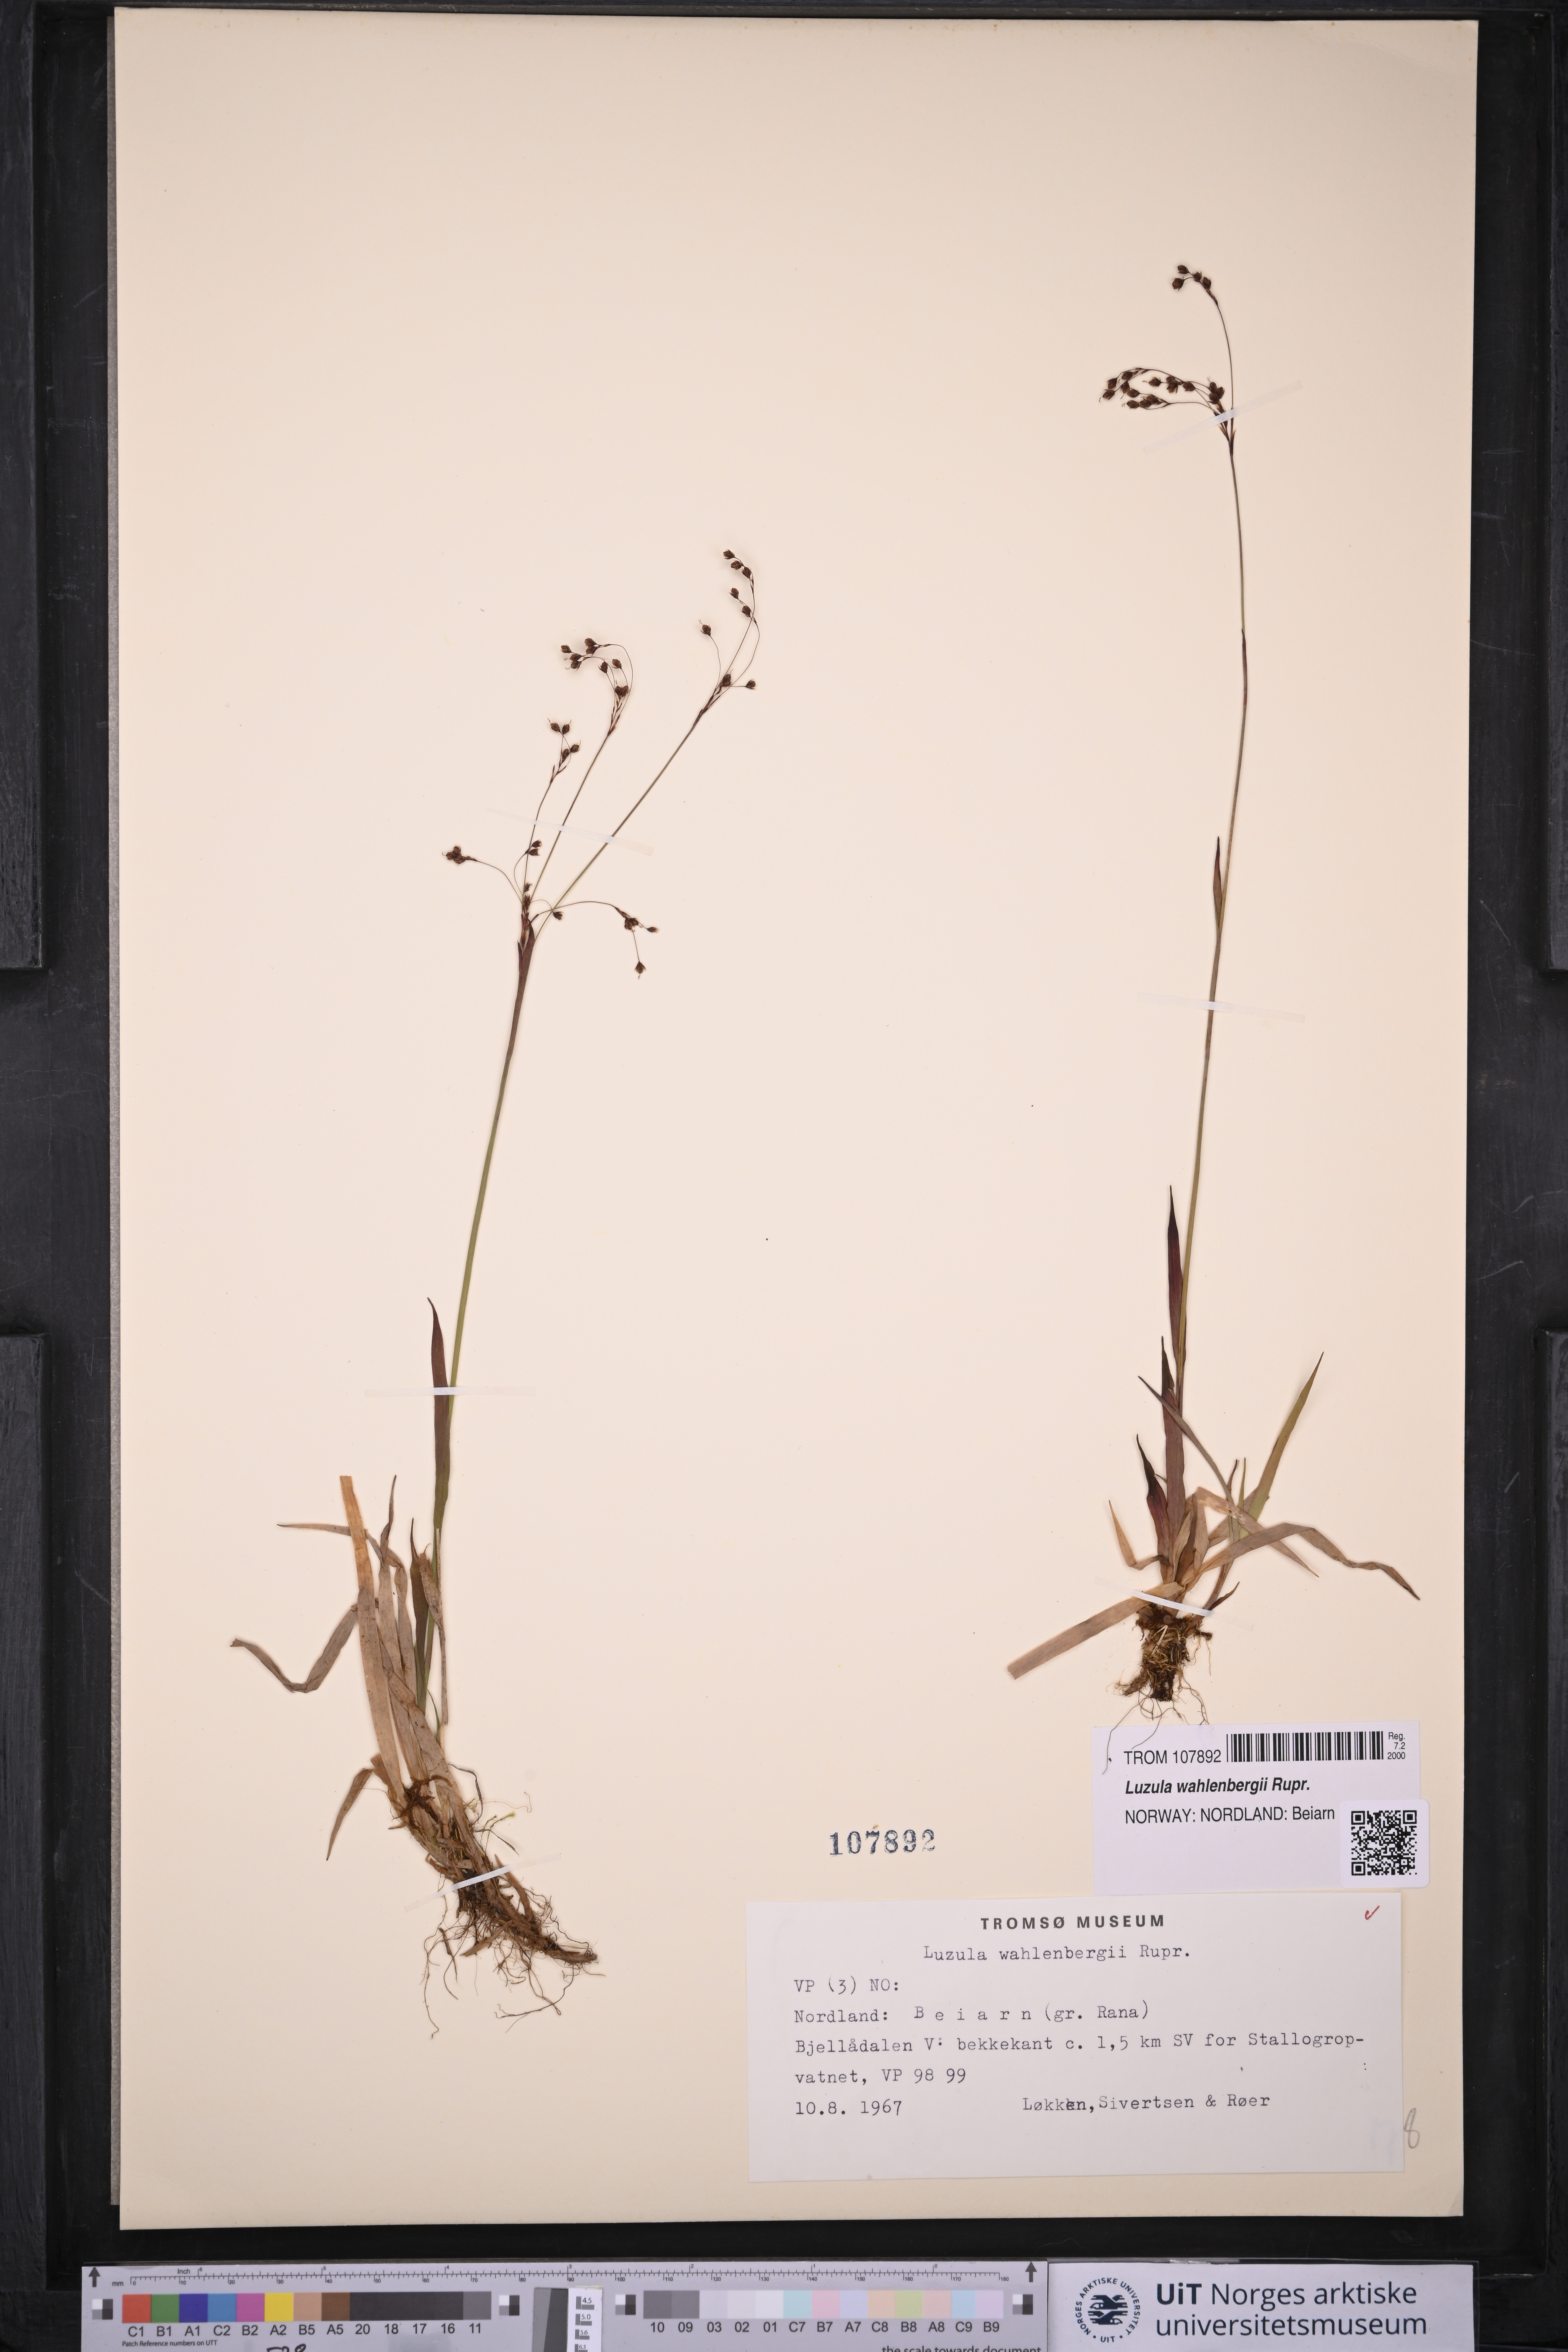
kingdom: Plantae
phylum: Tracheophyta
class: Liliopsida
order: Poales
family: Juncaceae
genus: Luzula
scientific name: Luzula wahlenbergii
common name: Wahlenberg's wood-rush
